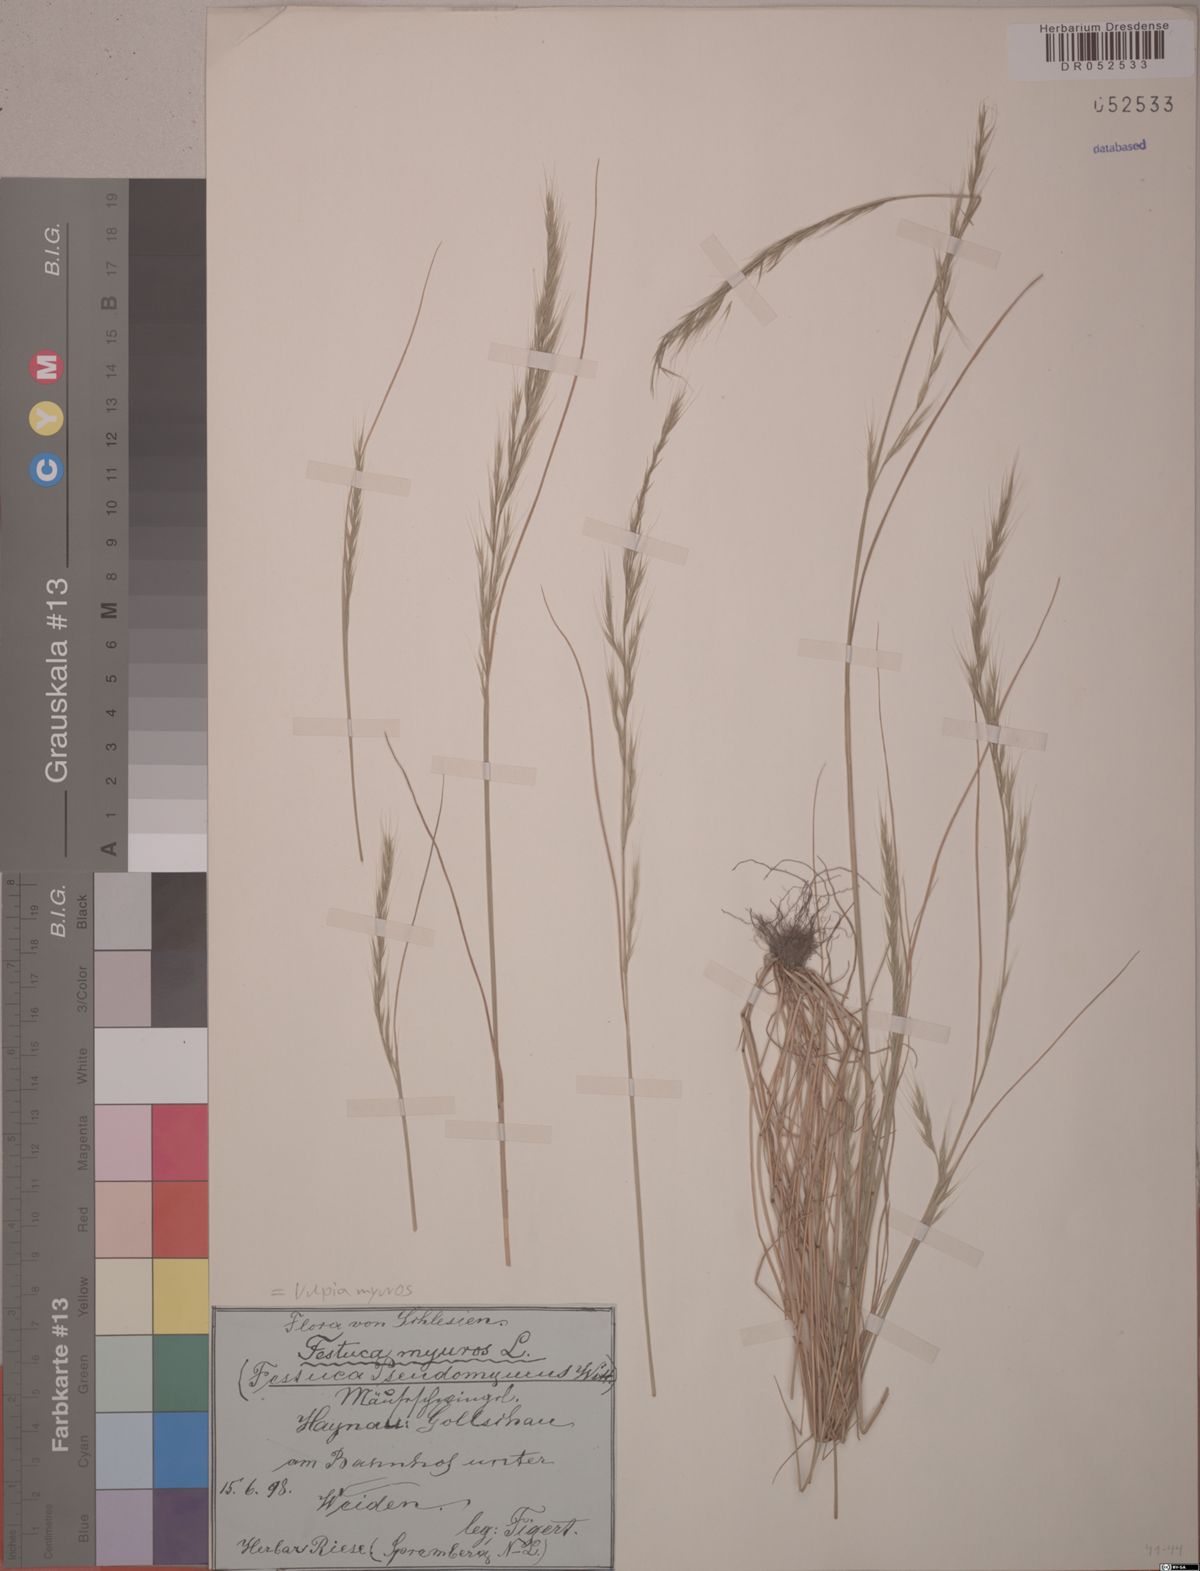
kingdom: Plantae
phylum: Tracheophyta
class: Liliopsida
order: Poales
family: Poaceae
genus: Festuca
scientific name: Festuca myuros
